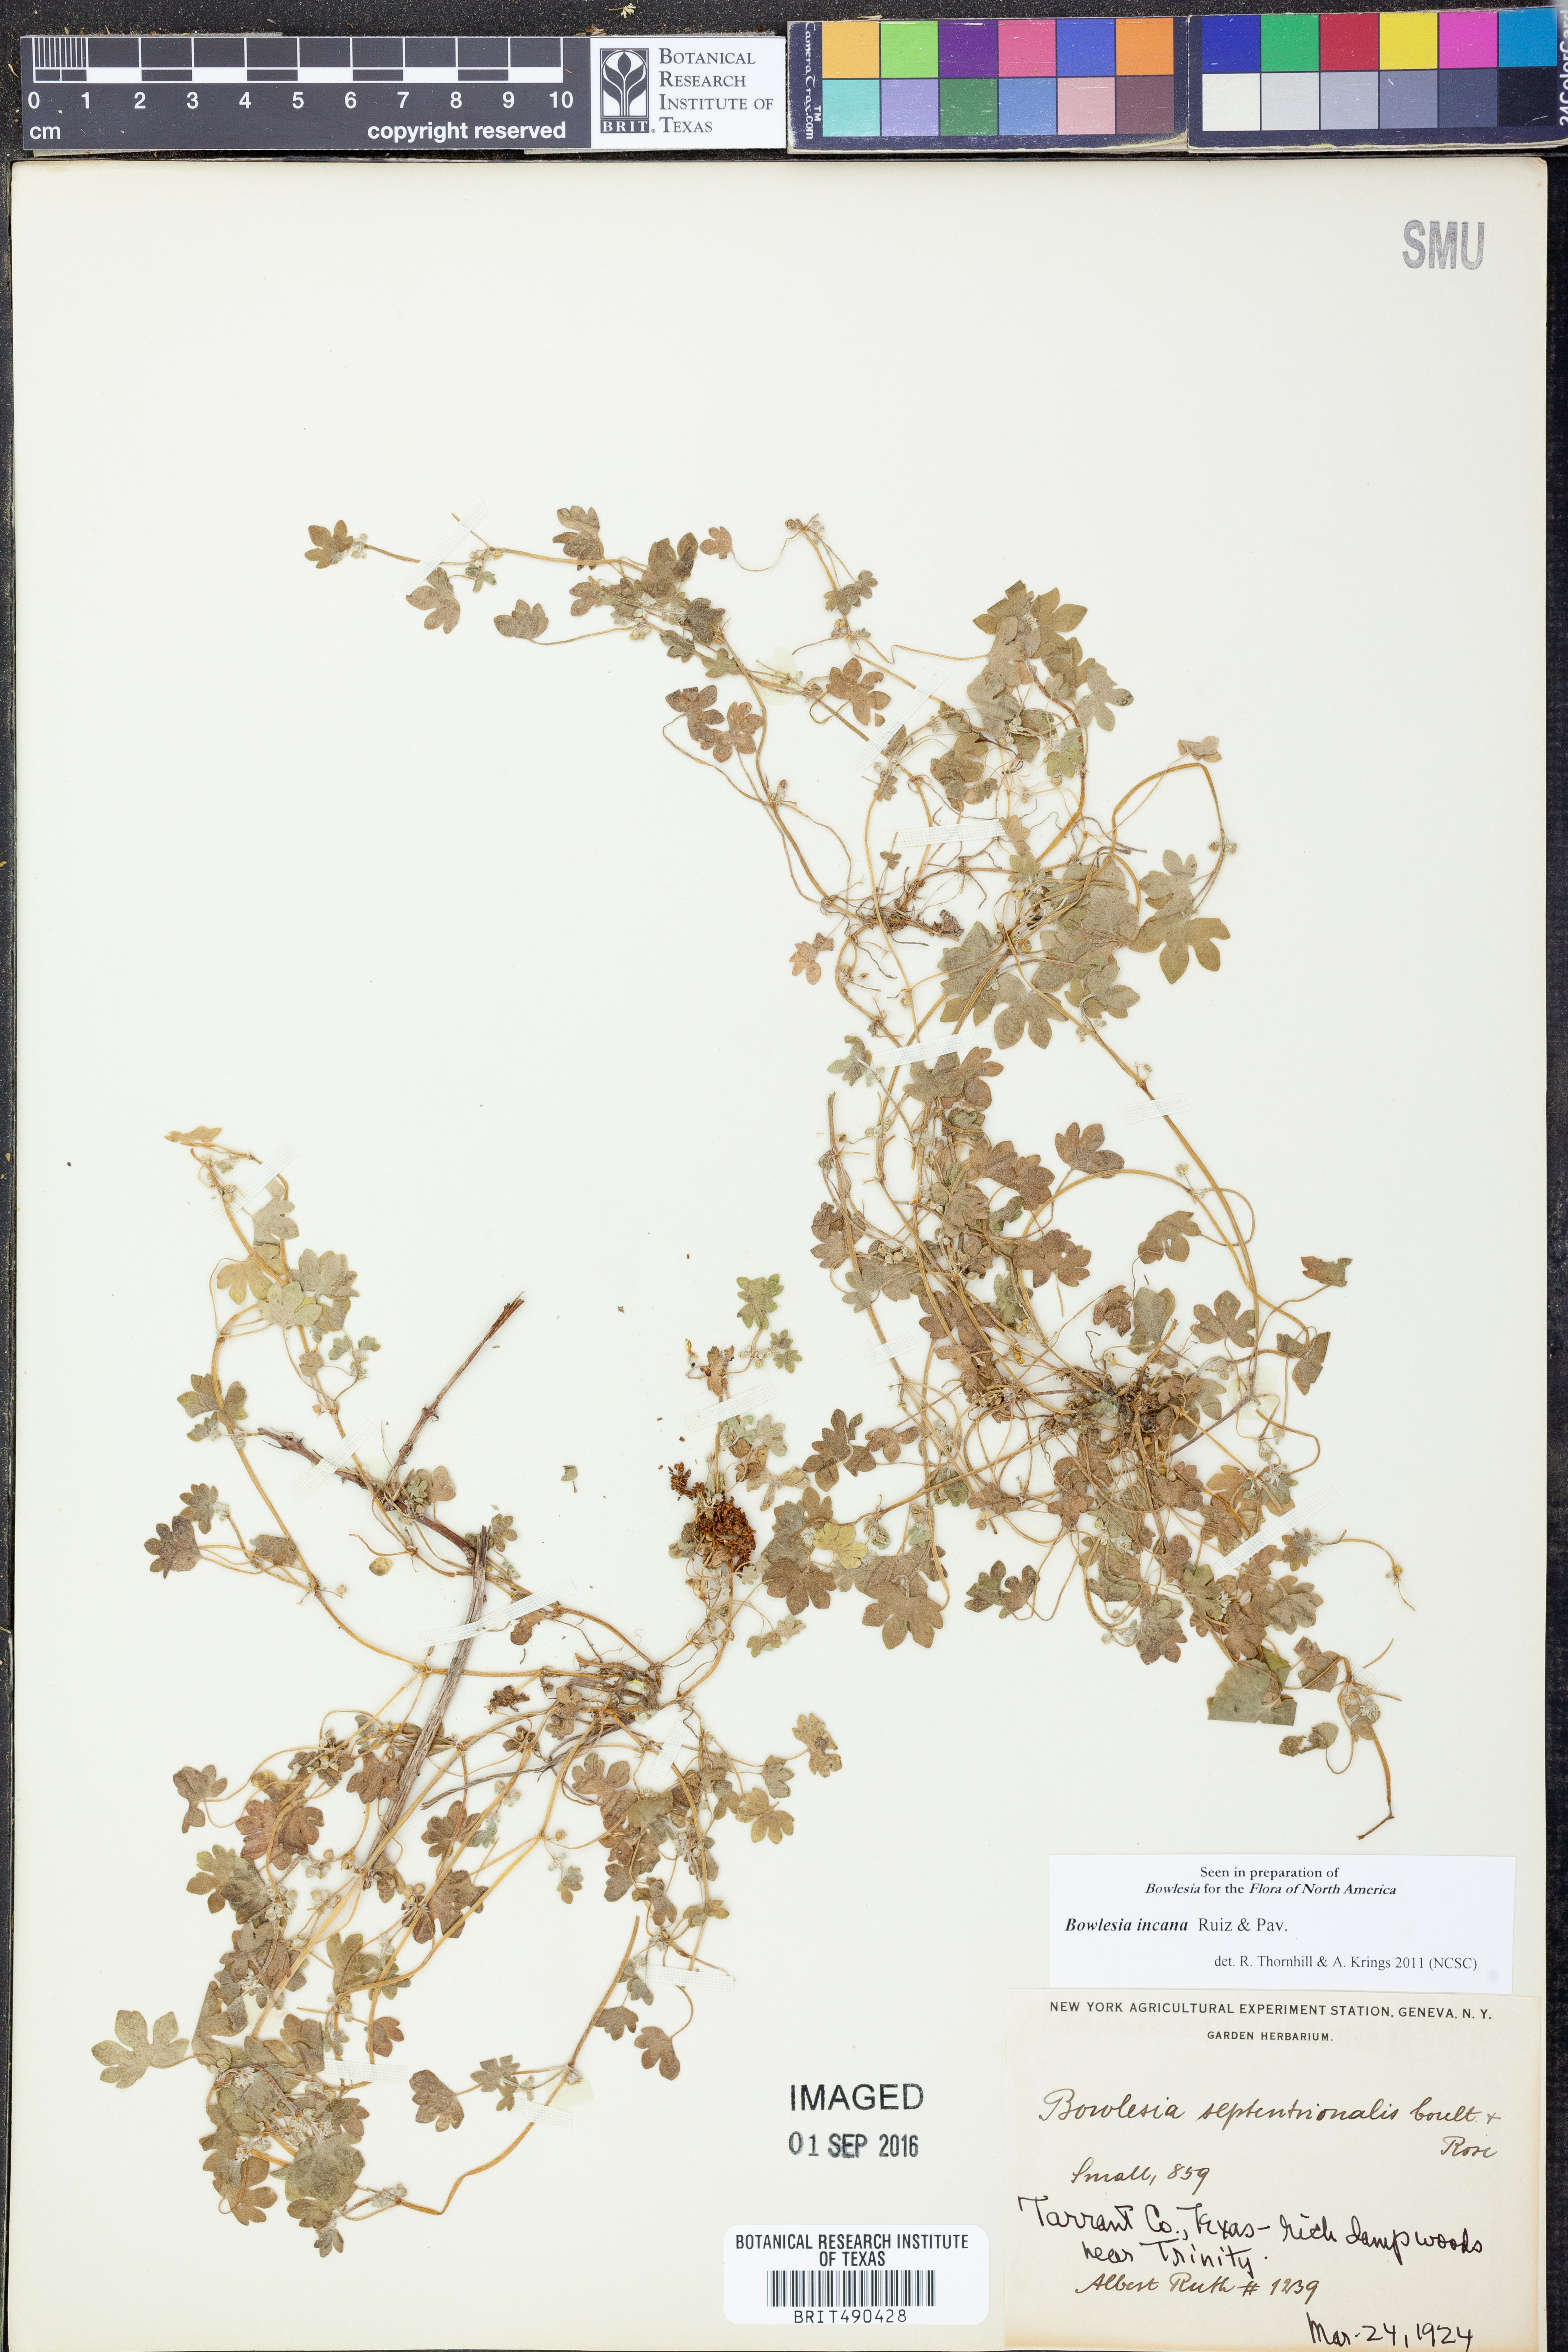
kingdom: Plantae
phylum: Tracheophyta
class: Magnoliopsida
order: Apiales
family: Apiaceae
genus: Bowlesia
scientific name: Bowlesia incana
